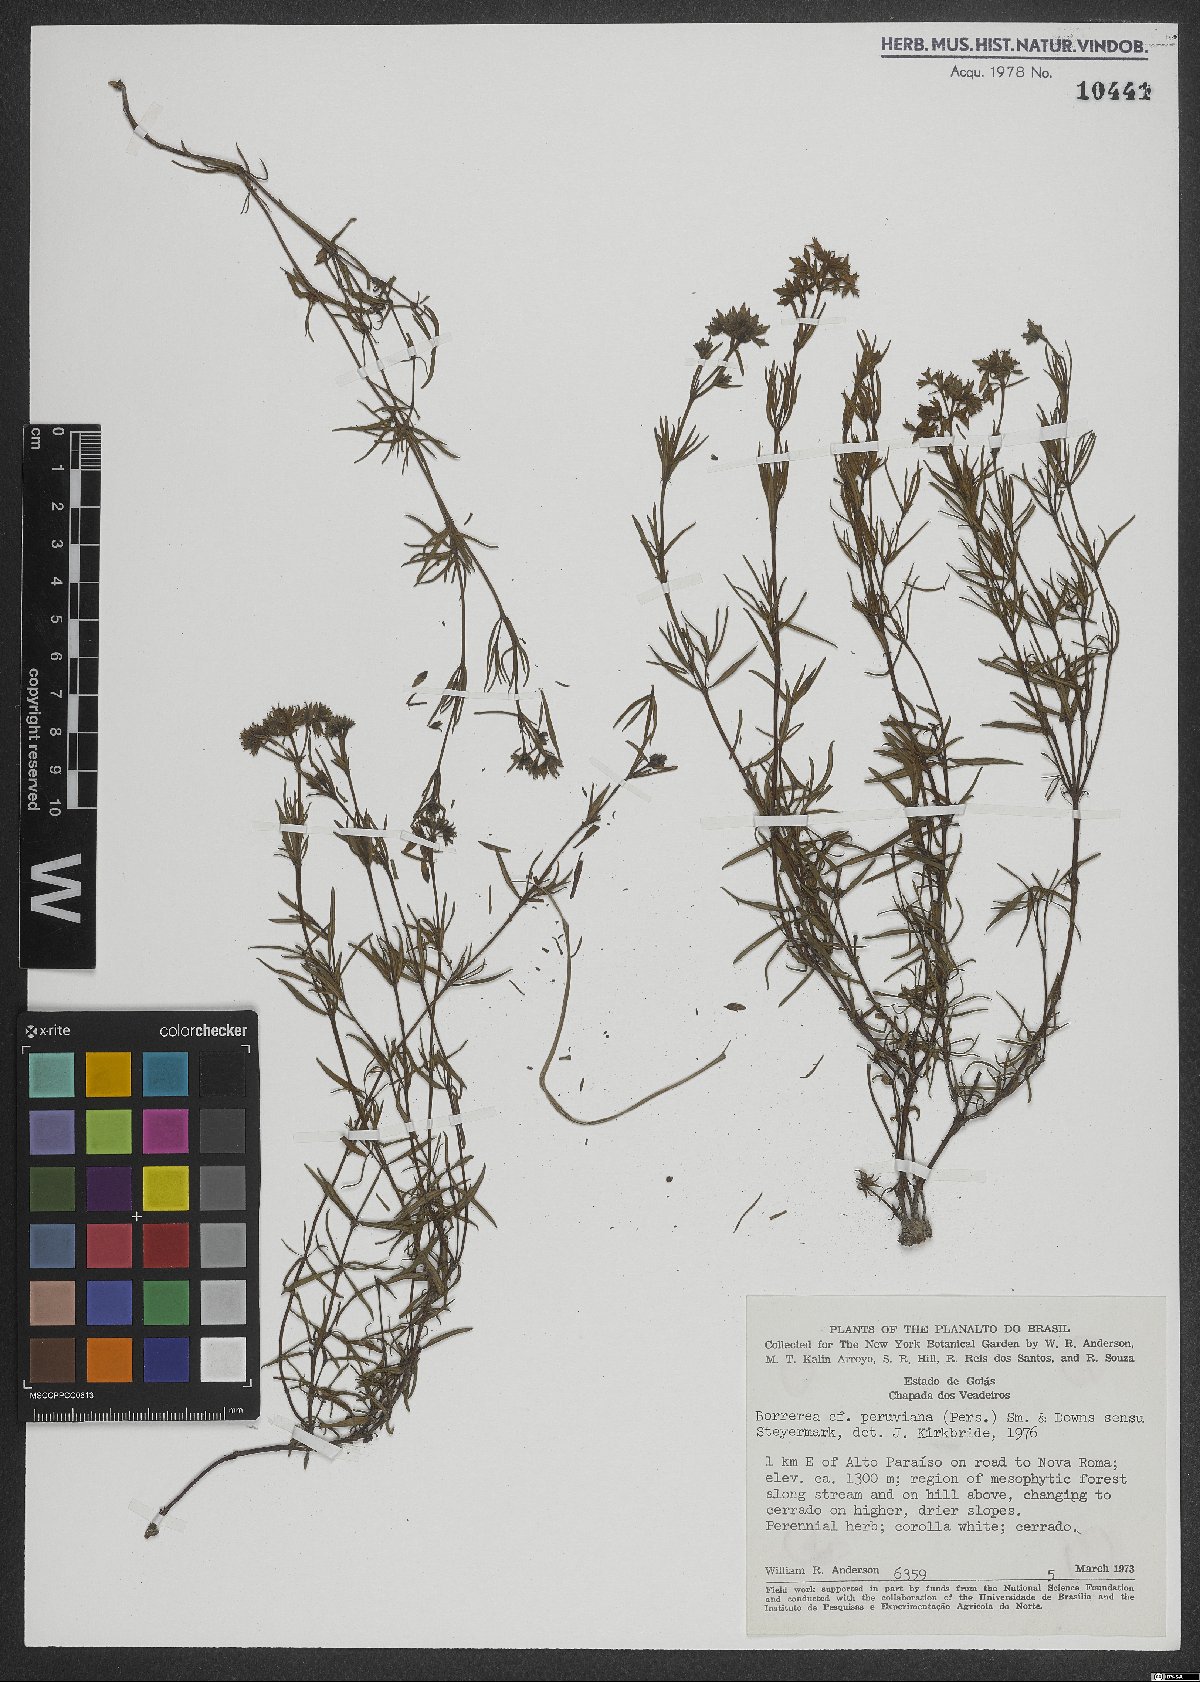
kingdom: Plantae
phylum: Tracheophyta
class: Magnoliopsida
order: Gentianales
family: Rubiaceae
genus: Galianthe
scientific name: Galianthe peruviana
